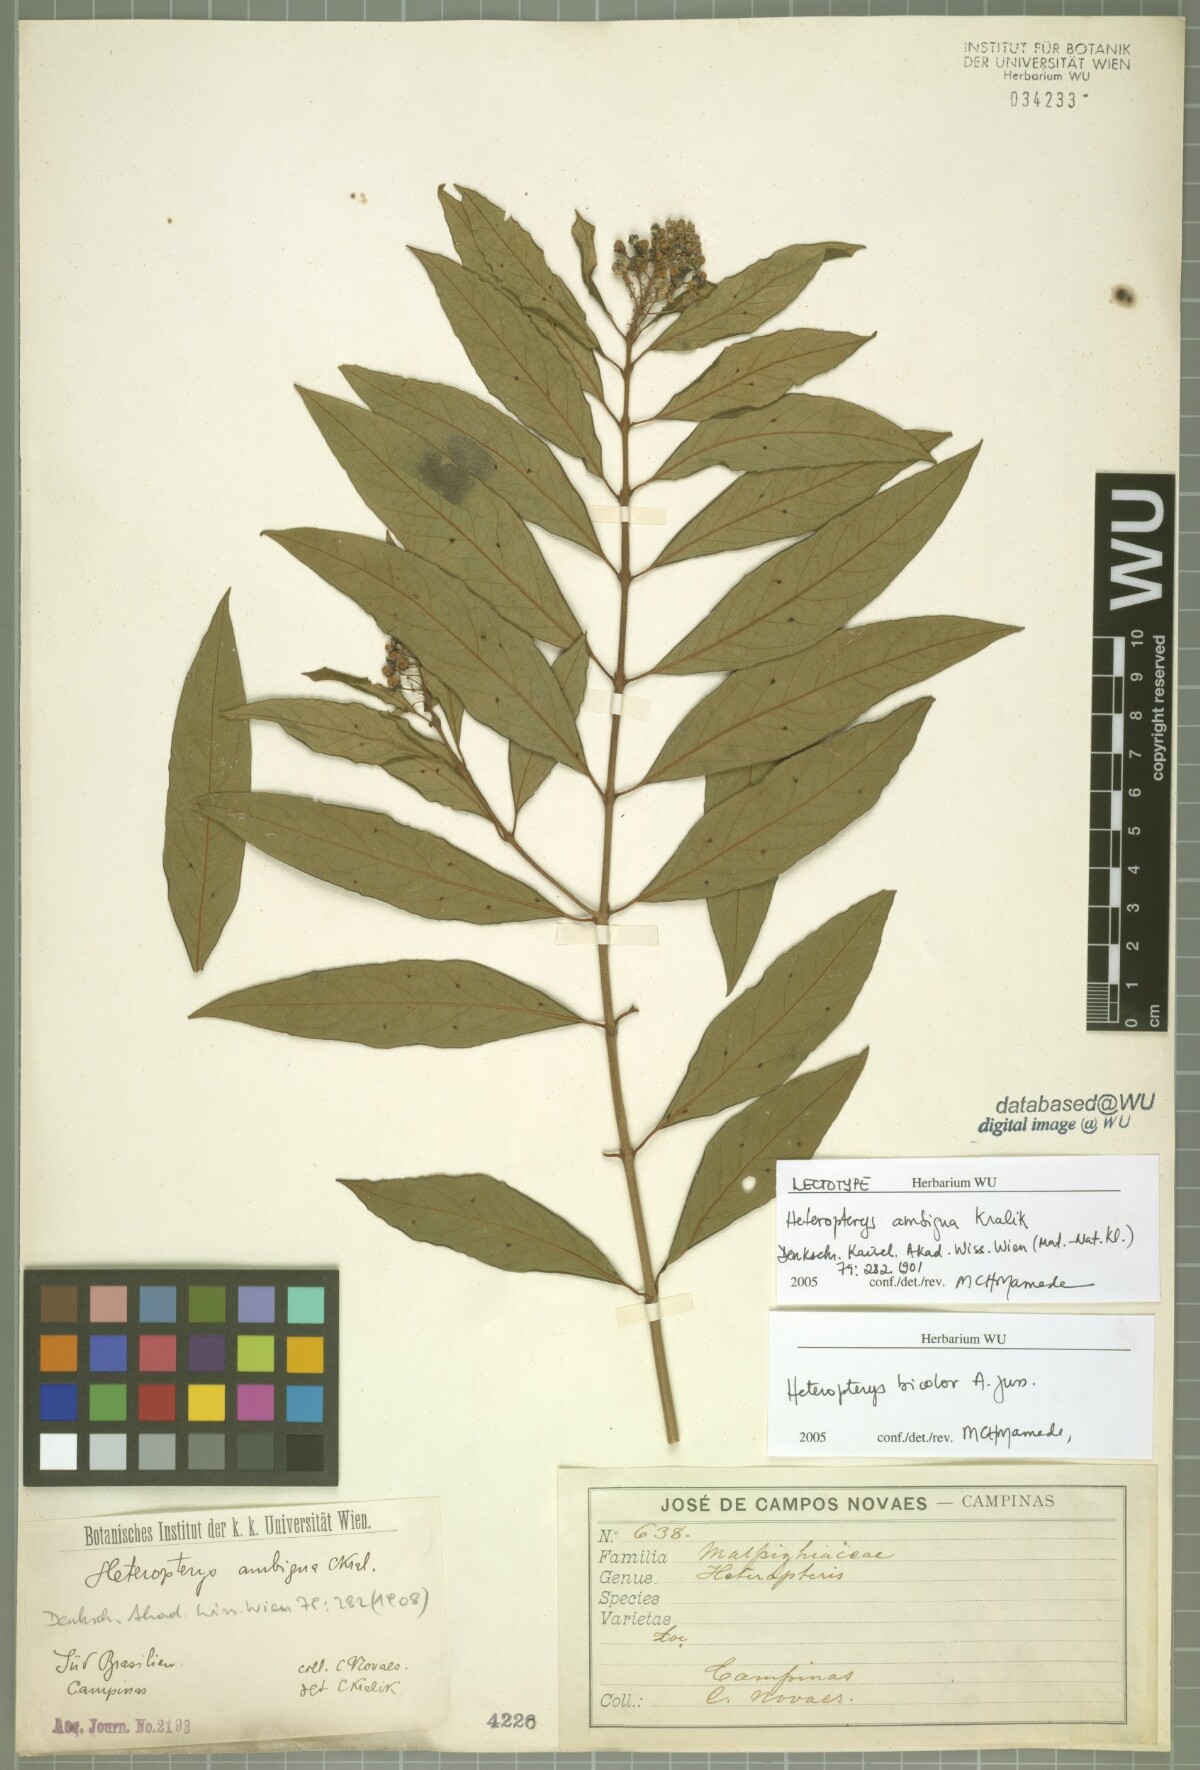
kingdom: Plantae
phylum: Tracheophyta
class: Magnoliopsida
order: Malpighiales
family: Malpighiaceae
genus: Heteropterys
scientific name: Heteropterys ambigua
